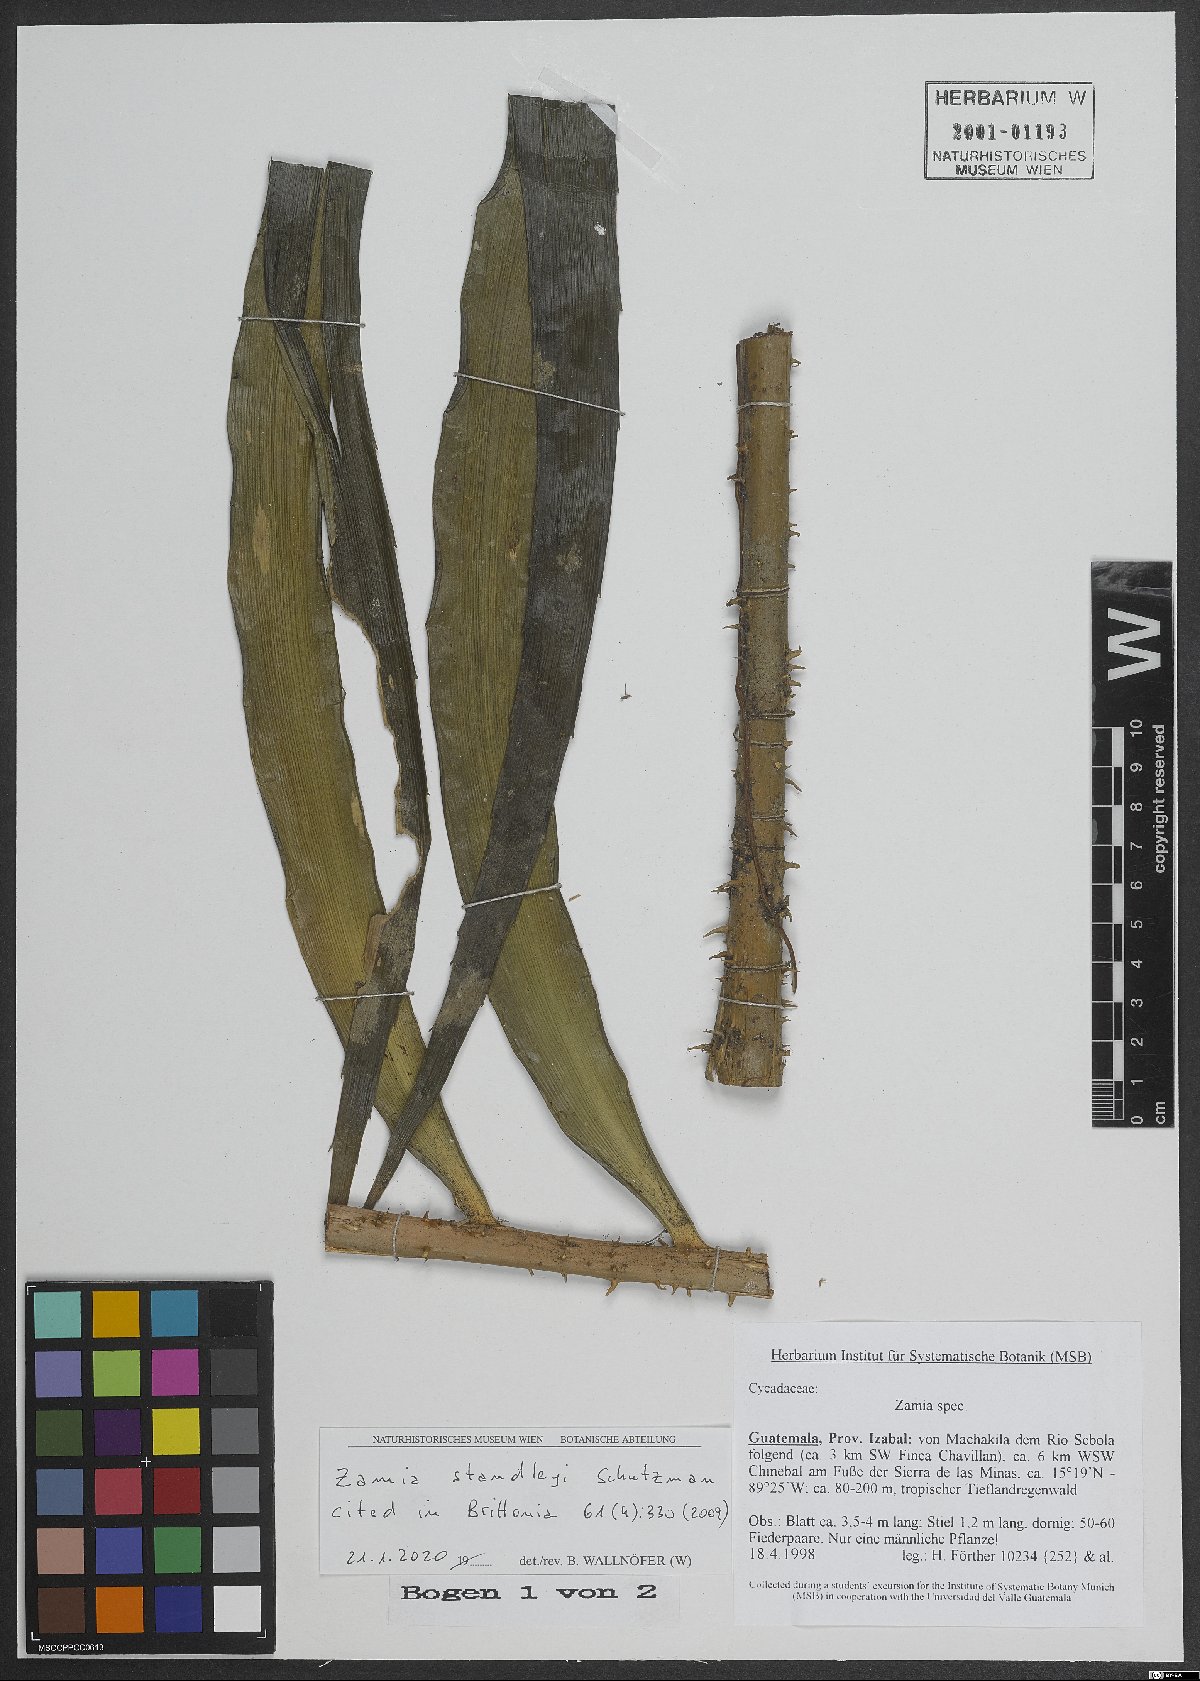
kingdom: Plantae
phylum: Tracheophyta
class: Cycadopsida
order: Cycadales
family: Zamiaceae
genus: Zamia
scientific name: Zamia standleyi
